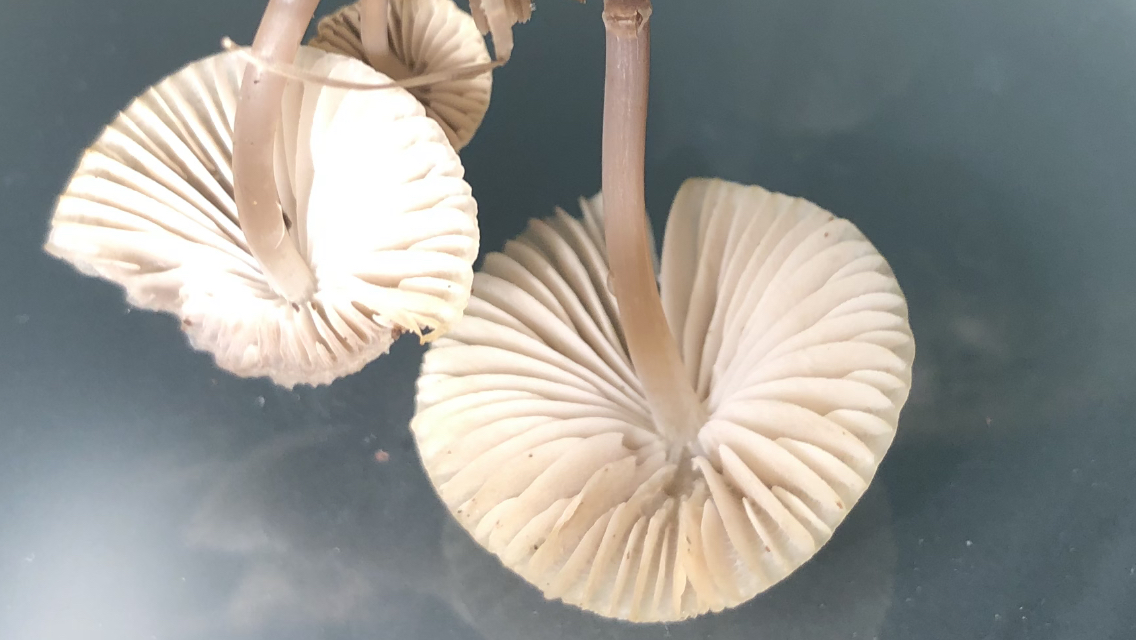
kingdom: Fungi
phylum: Basidiomycota
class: Agaricomycetes
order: Agaricales
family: Mycenaceae
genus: Mycena
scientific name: Mycena arcangeliana
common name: oliven-huesvamp
